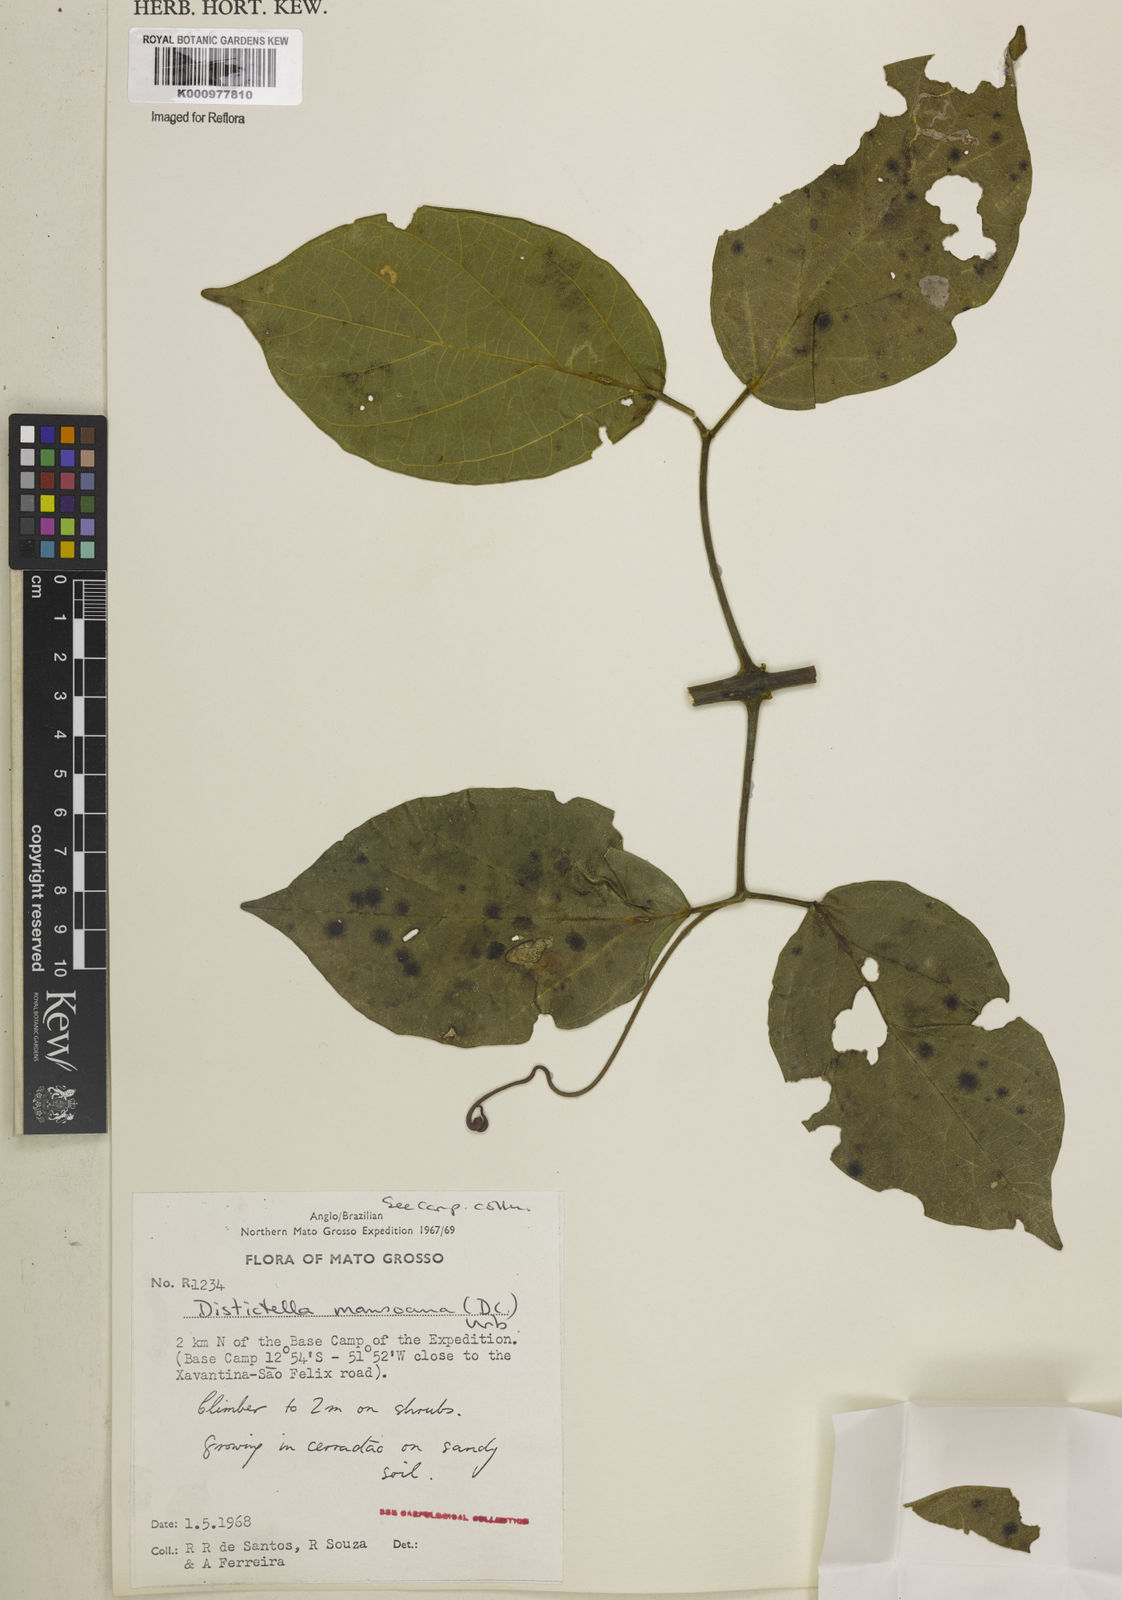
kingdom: Plantae
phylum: Tracheophyta
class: Magnoliopsida
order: Lamiales
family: Bignoniaceae
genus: Amphilophium
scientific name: Amphilophium mansoanum
